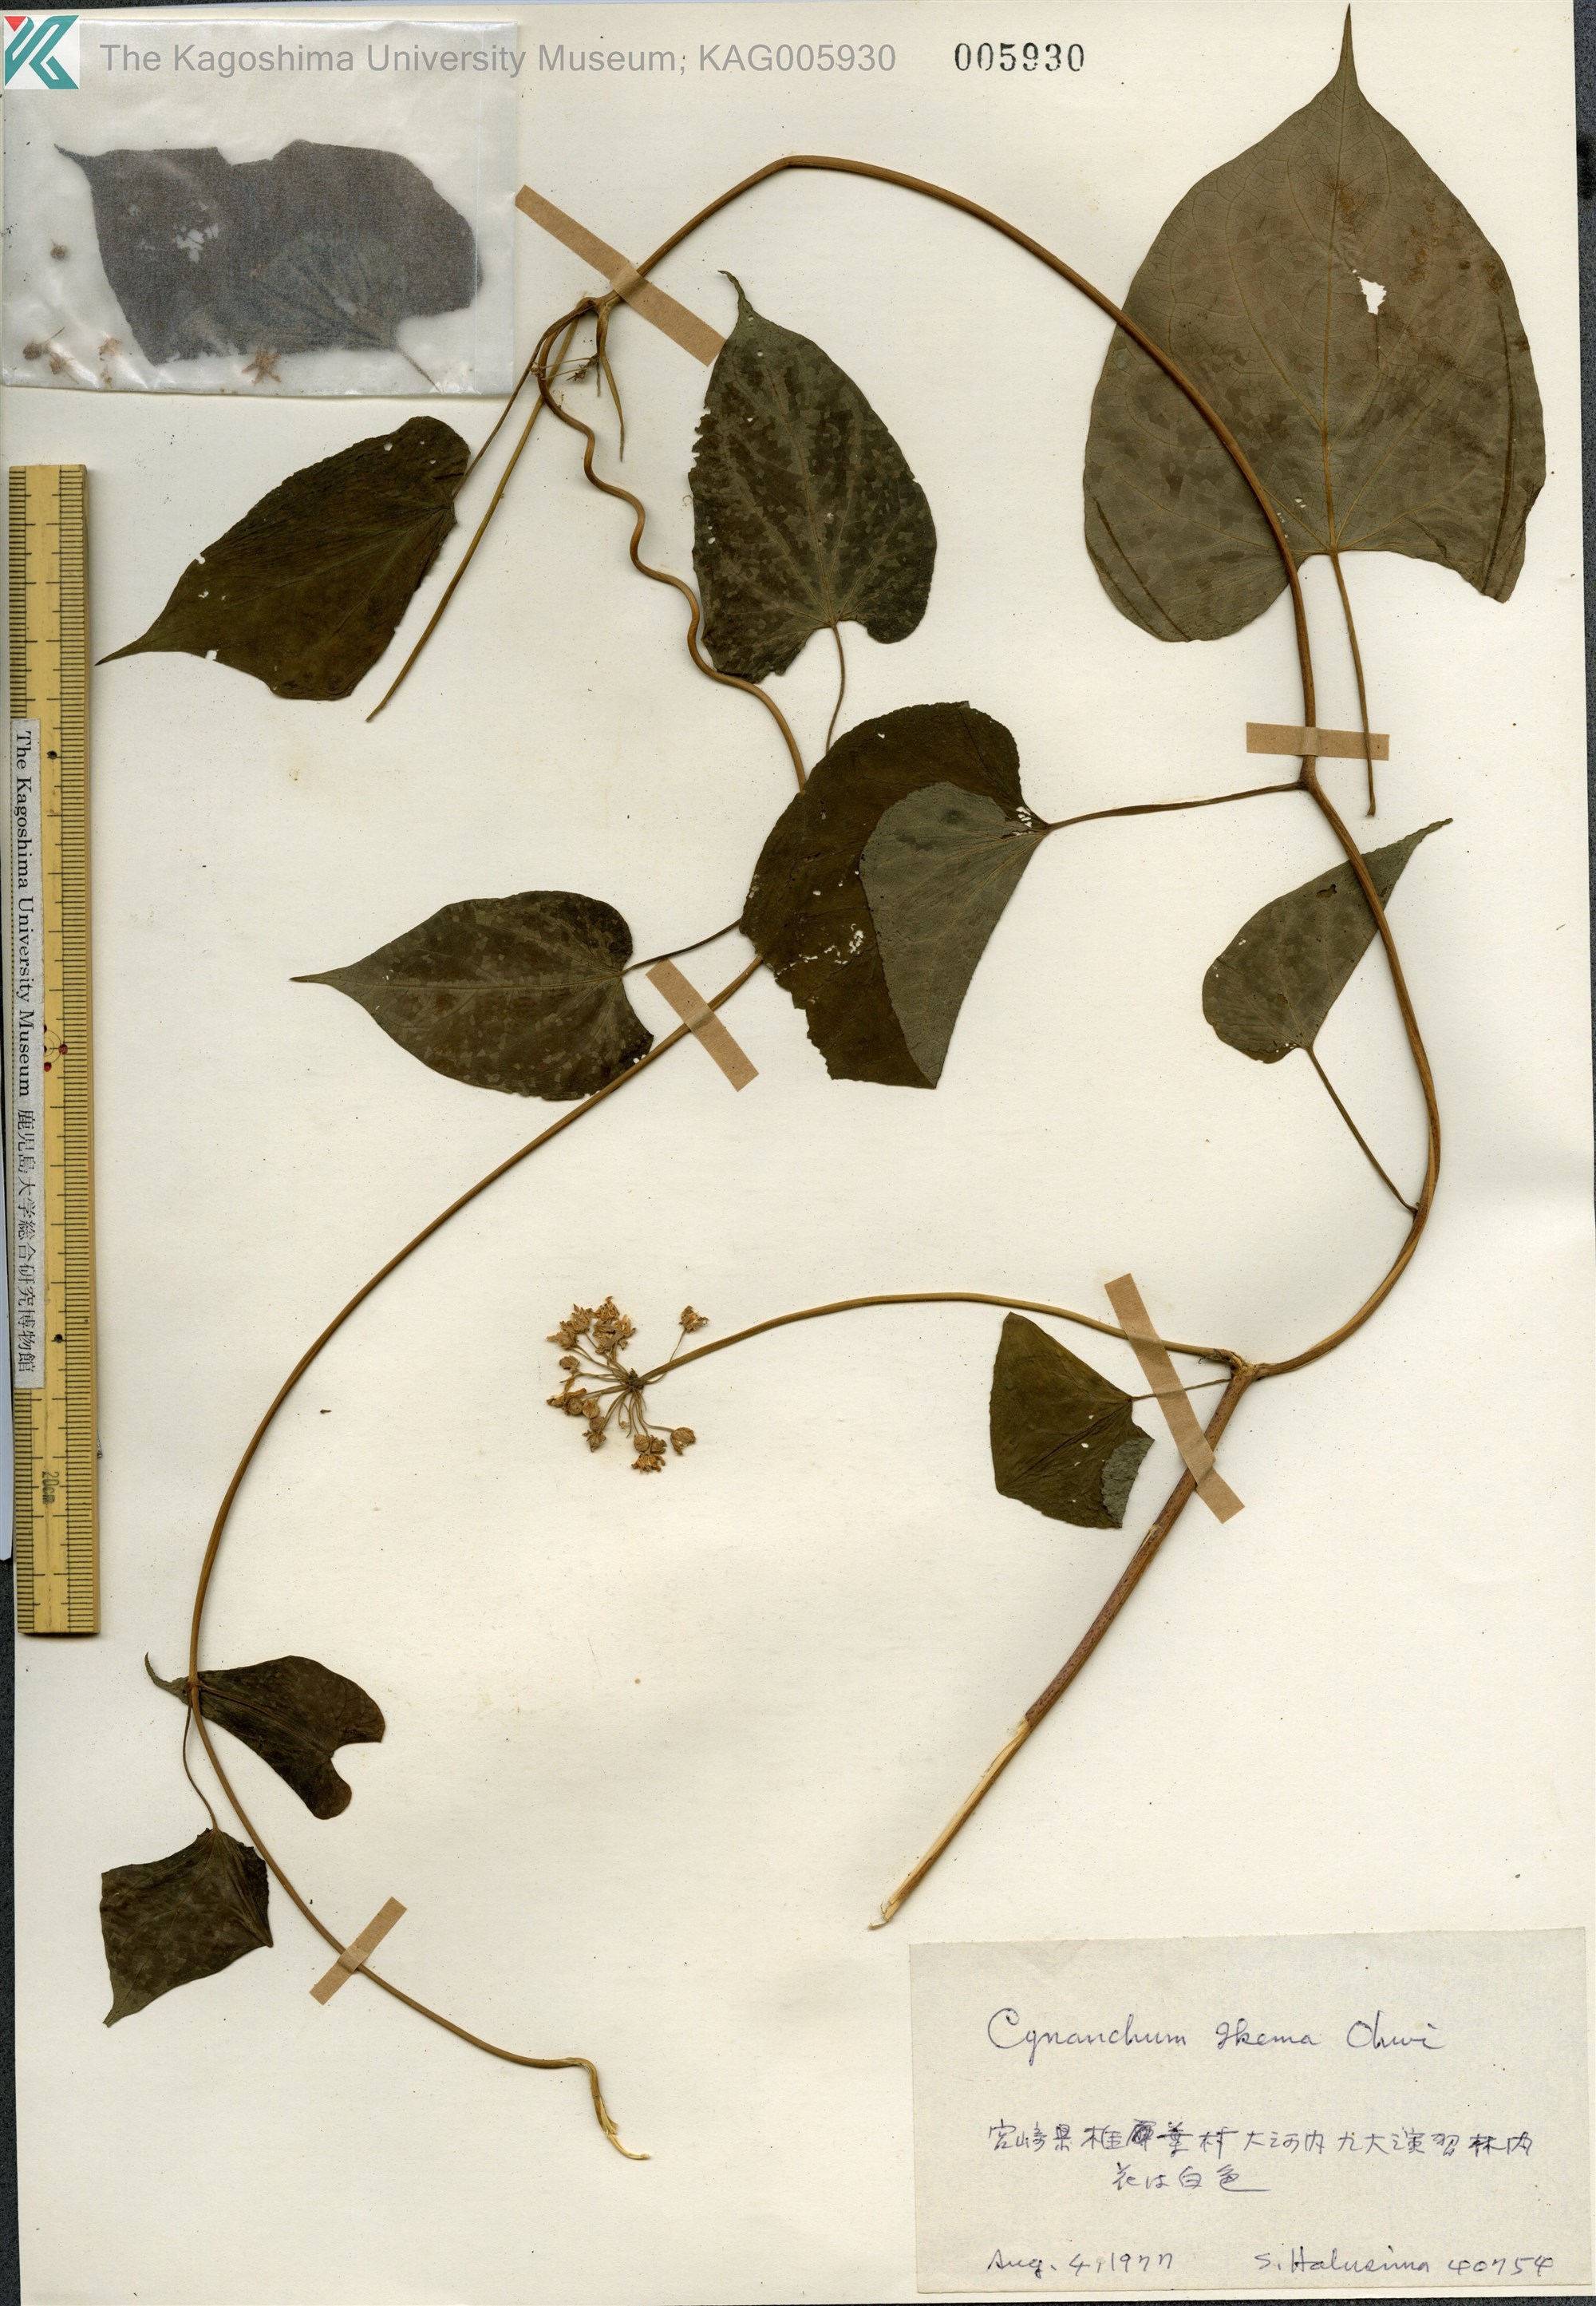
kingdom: Plantae
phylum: Tracheophyta
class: Magnoliopsida
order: Gentianales
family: Apocynaceae
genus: Orthosia
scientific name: Orthosia virgata
